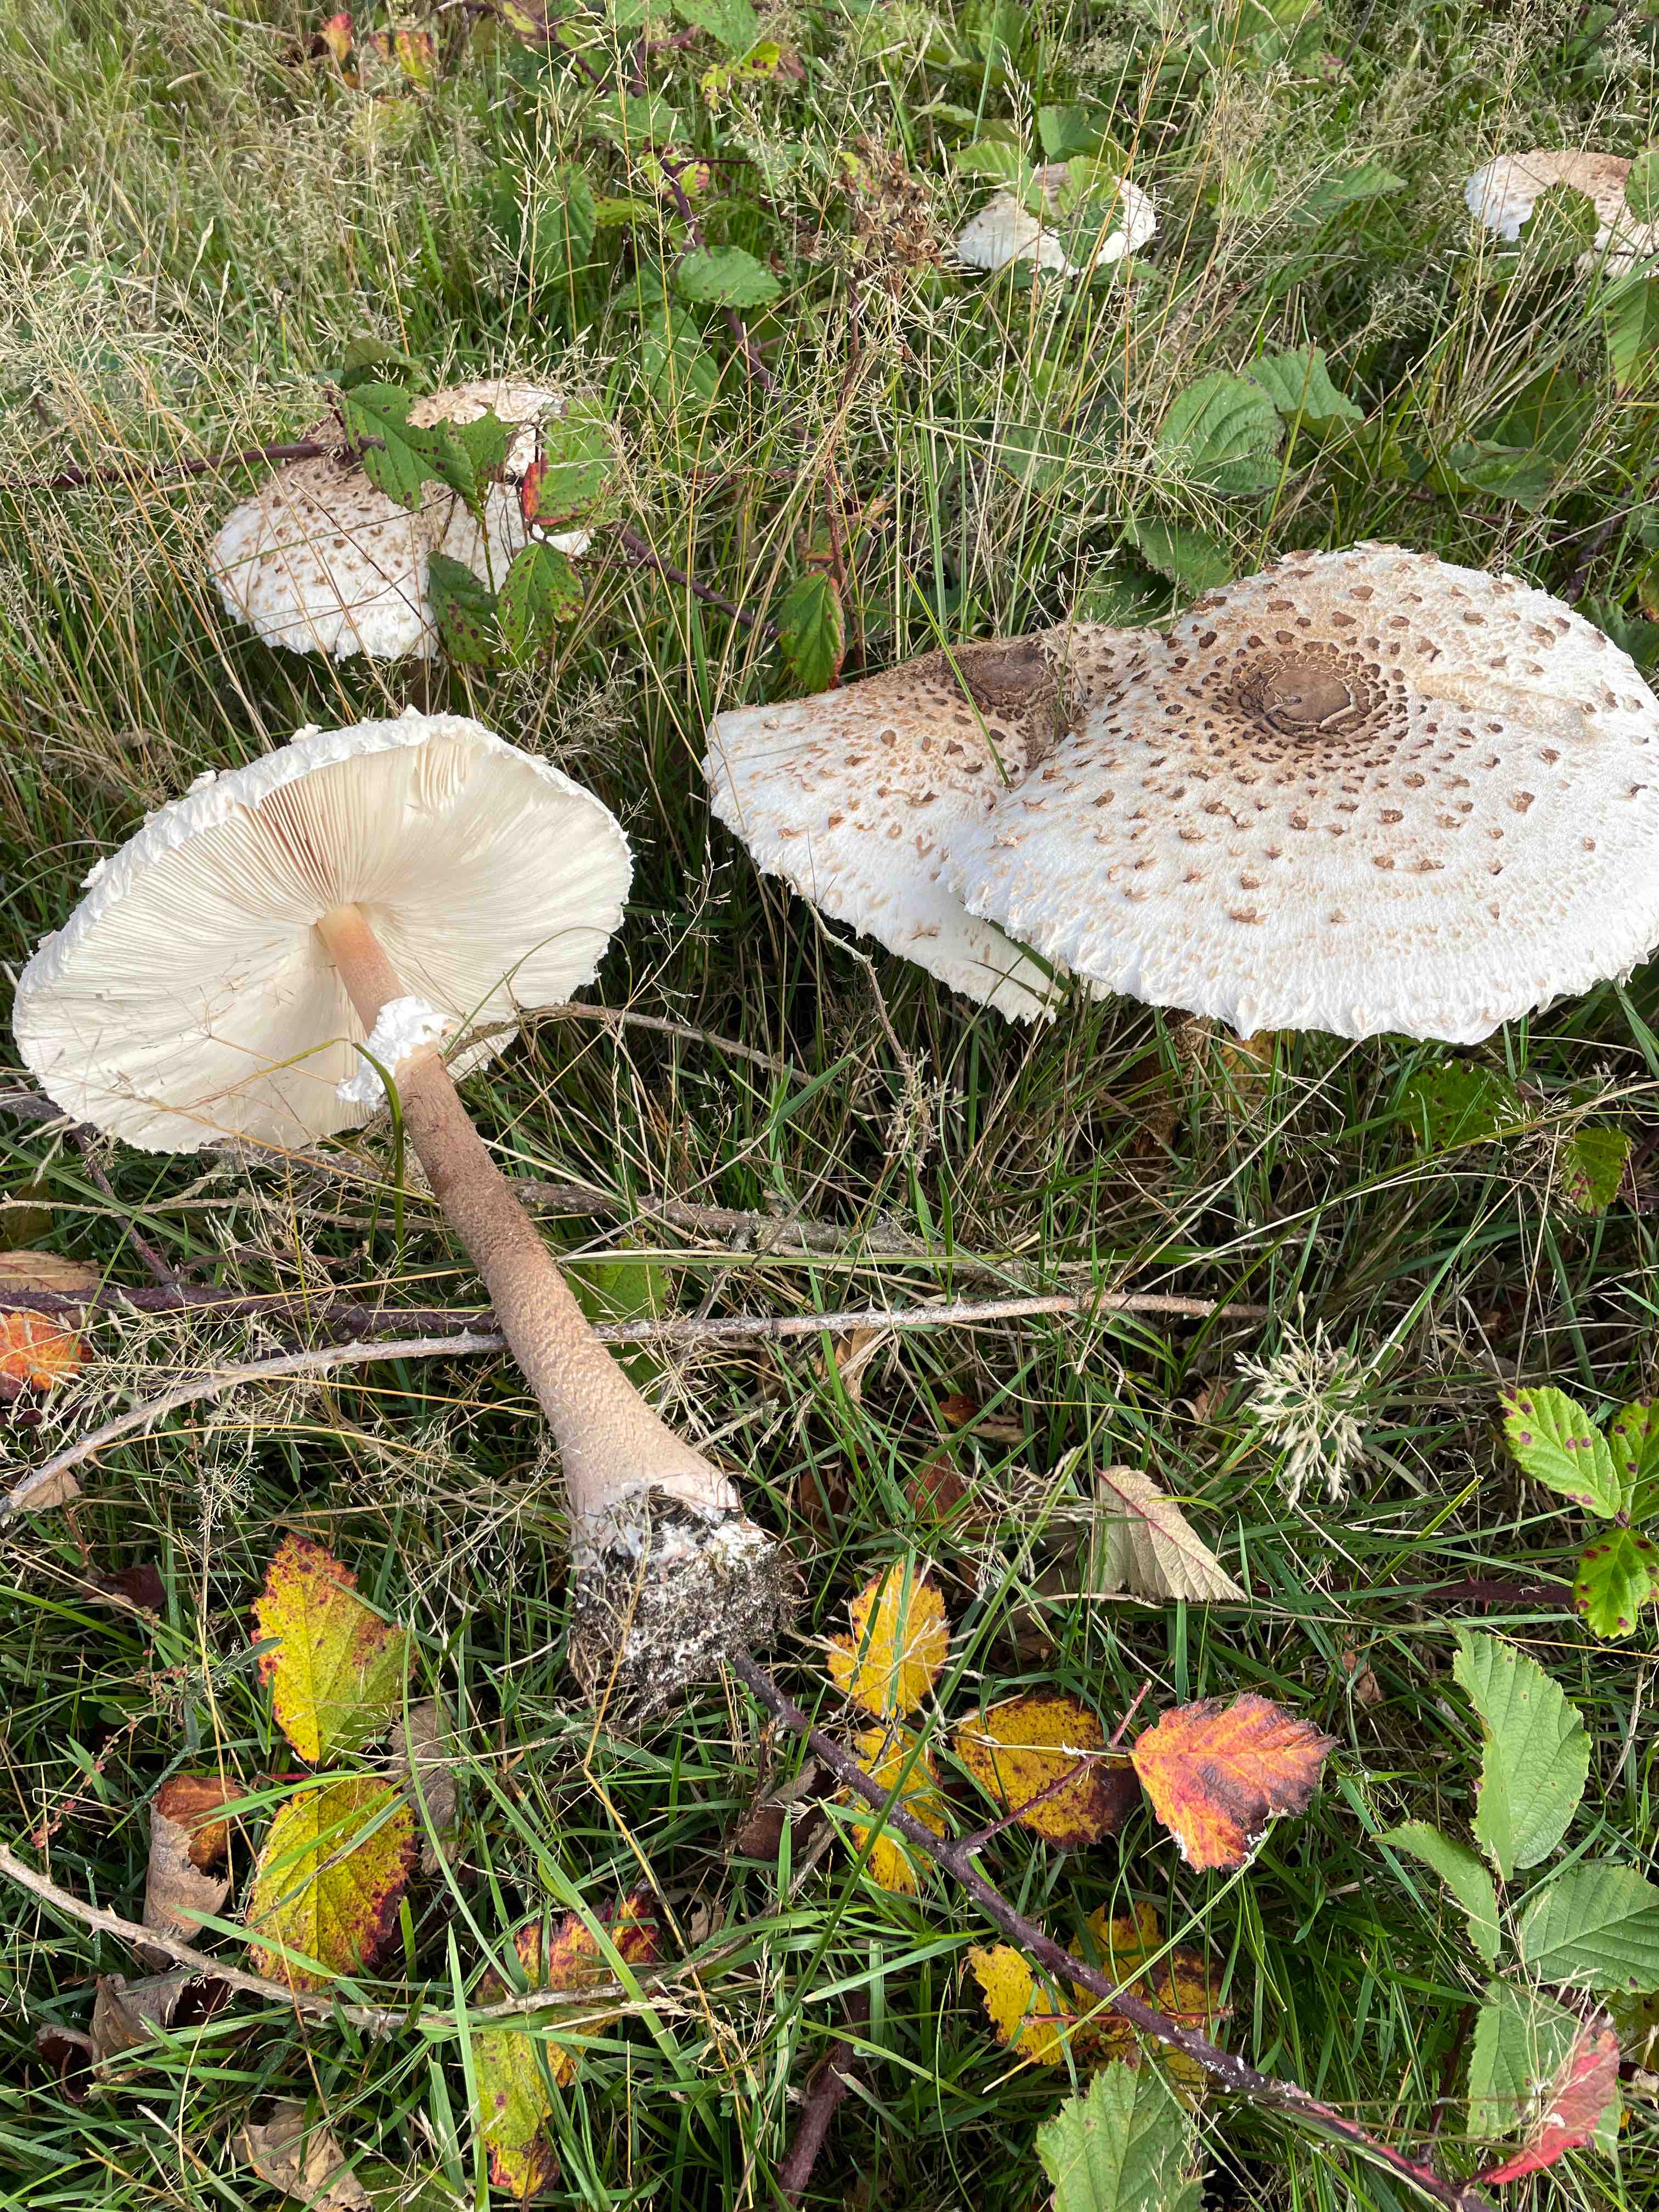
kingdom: Fungi
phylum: Basidiomycota
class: Agaricomycetes
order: Agaricales
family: Agaricaceae
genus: Macrolepiota
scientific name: Macrolepiota procera
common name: stor kæmpeparasolhat
